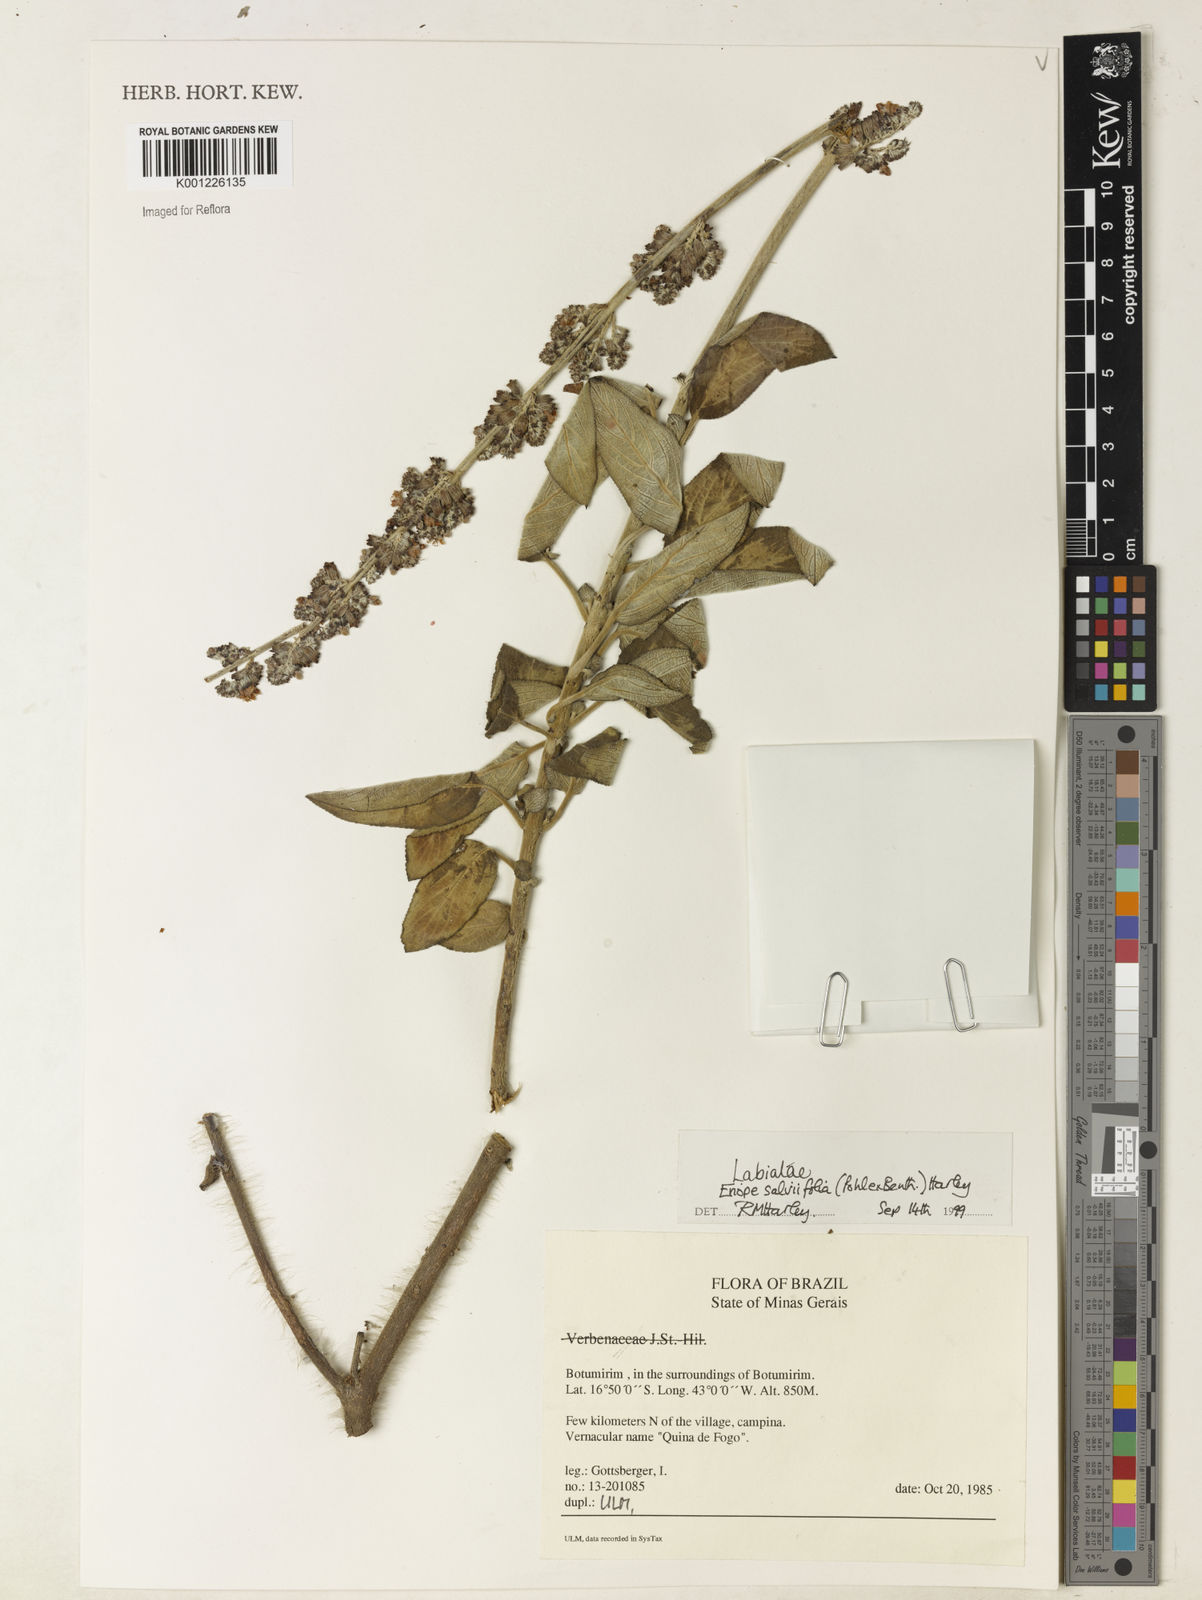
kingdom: Plantae
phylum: Tracheophyta
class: Magnoliopsida
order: Lamiales
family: Lamiaceae
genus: Eriope
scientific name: Eriope salviifolia
